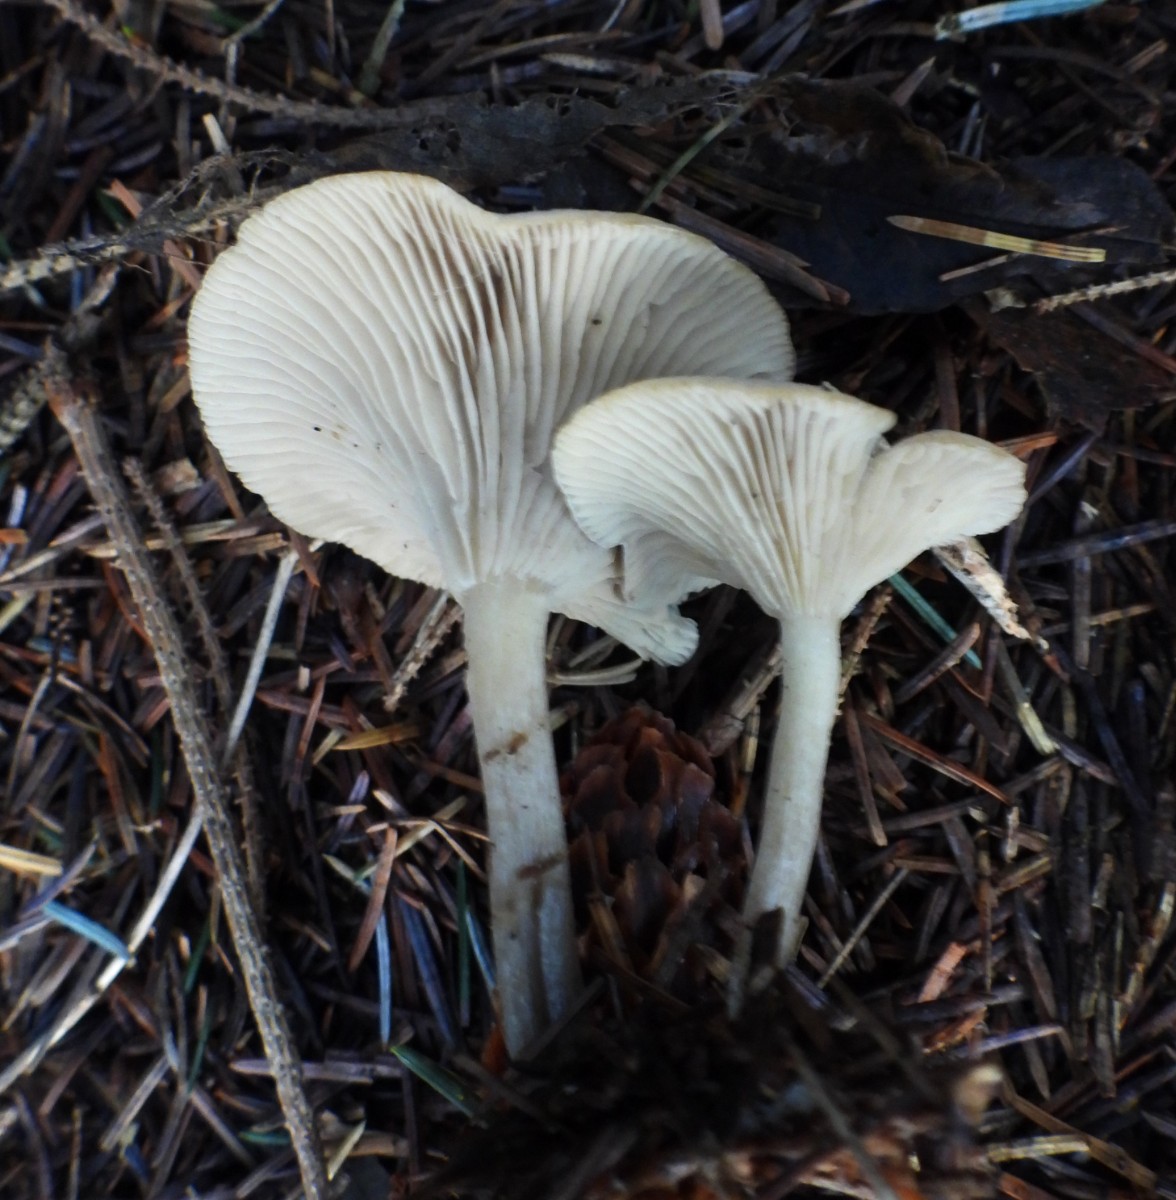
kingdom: Fungi
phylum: Basidiomycota
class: Agaricomycetes
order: Agaricales
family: Tricholomataceae
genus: Clitocybe
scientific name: Clitocybe
